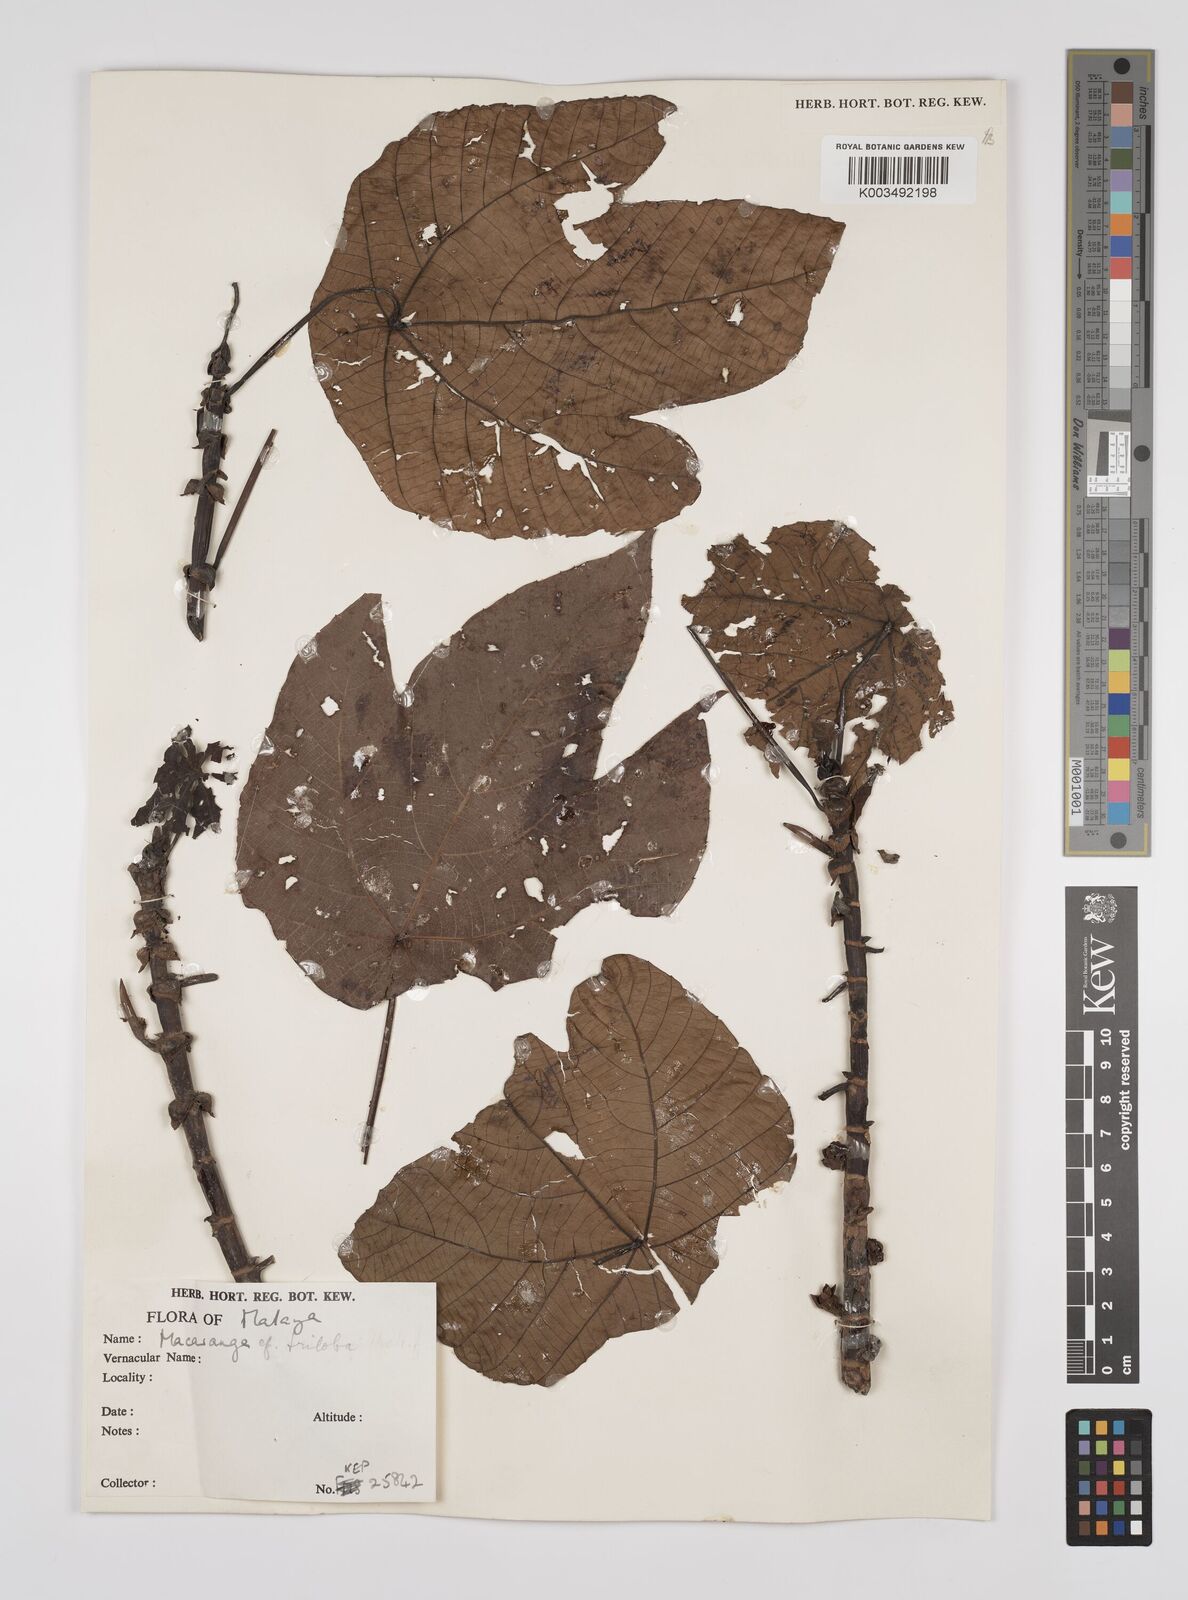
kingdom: Plantae
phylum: Tracheophyta
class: Magnoliopsida
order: Malpighiales
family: Euphorbiaceae
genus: Macaranga
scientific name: Macaranga triloba
